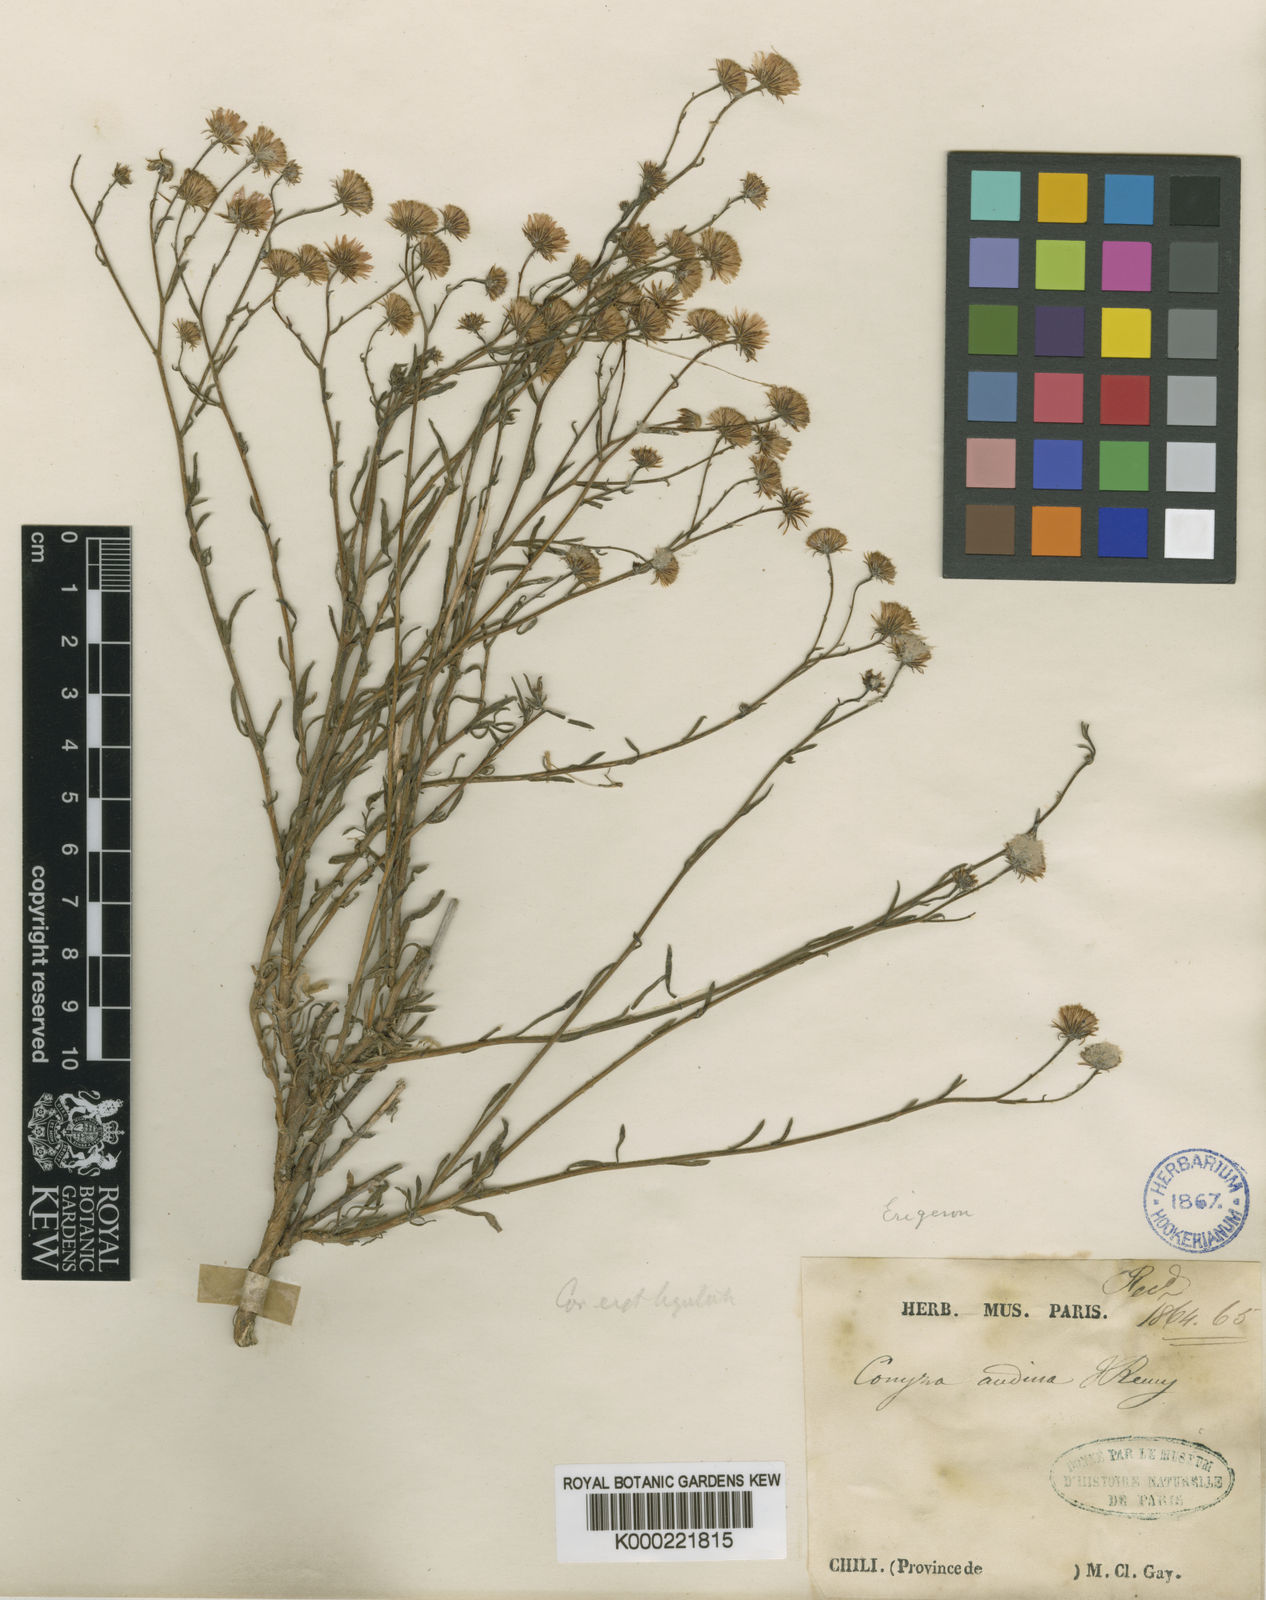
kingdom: Plantae
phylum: Tracheophyta
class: Magnoliopsida
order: Asterales
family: Asteraceae
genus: Erigeron
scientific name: Erigeron andicola
